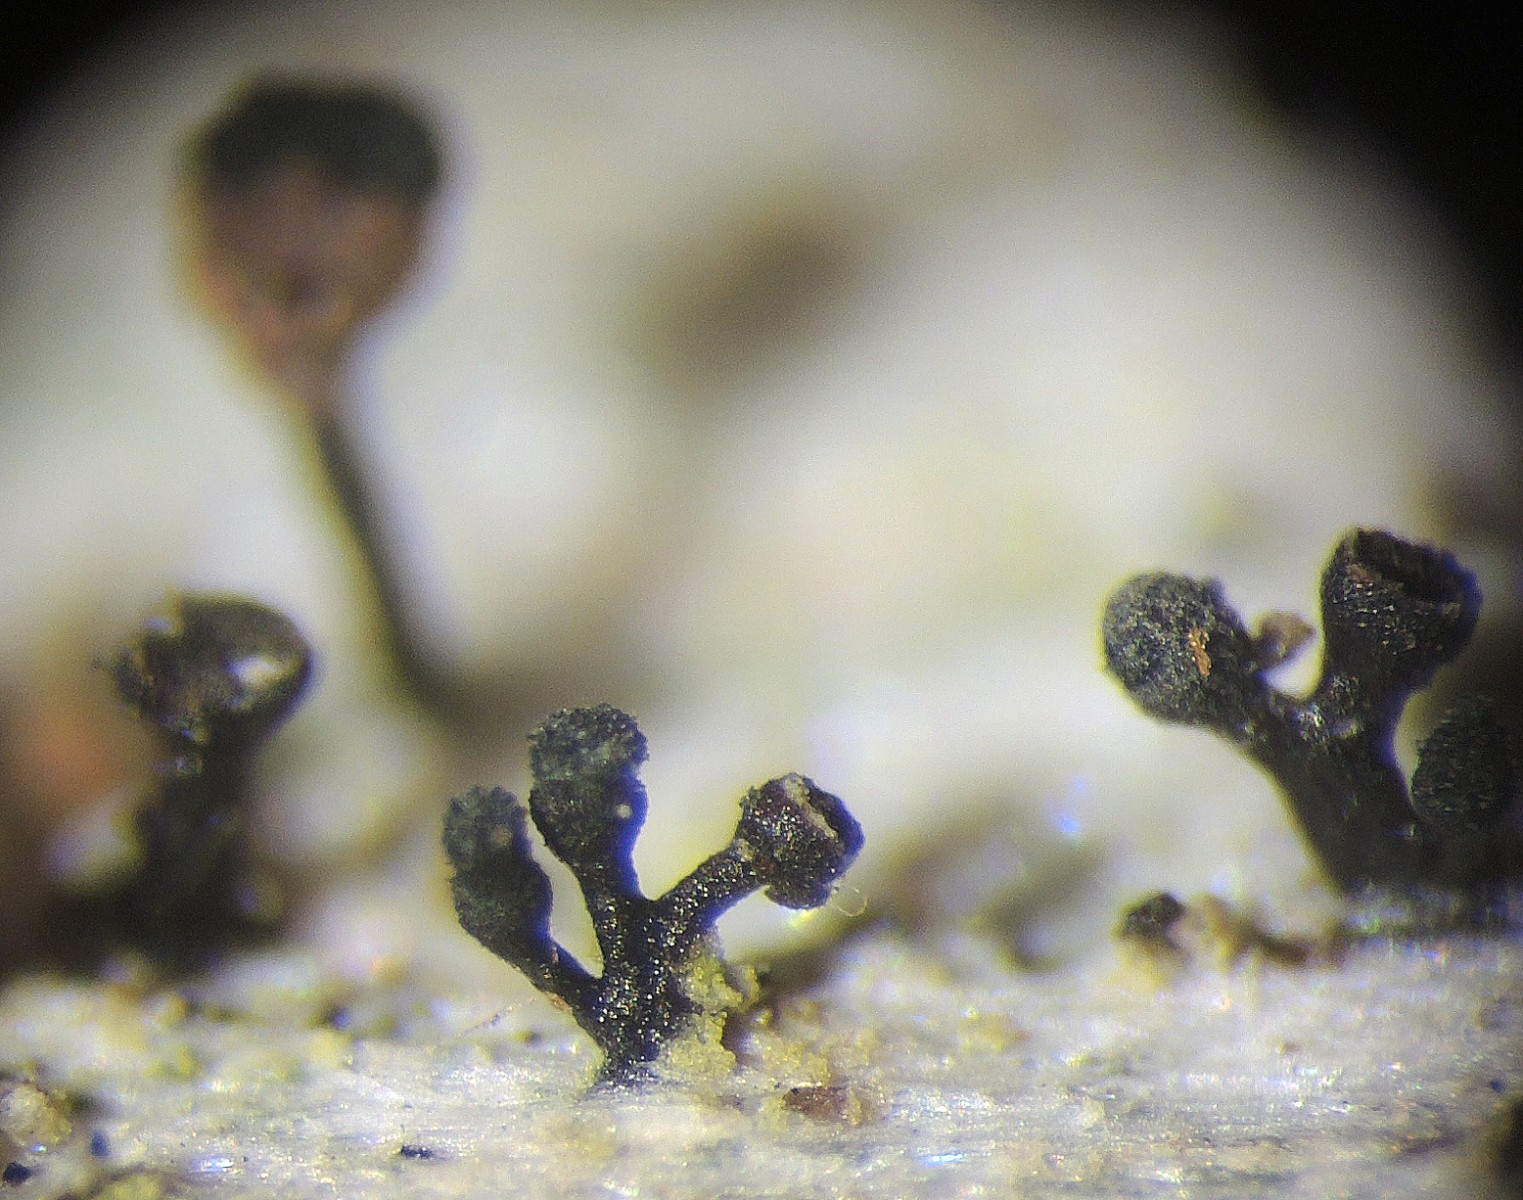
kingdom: Fungi
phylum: Ascomycota
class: Lecanoromycetes
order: Caliciales
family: Caliciaceae
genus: Calicium
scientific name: Calicium glaucellum
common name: grågrøn nålelav
